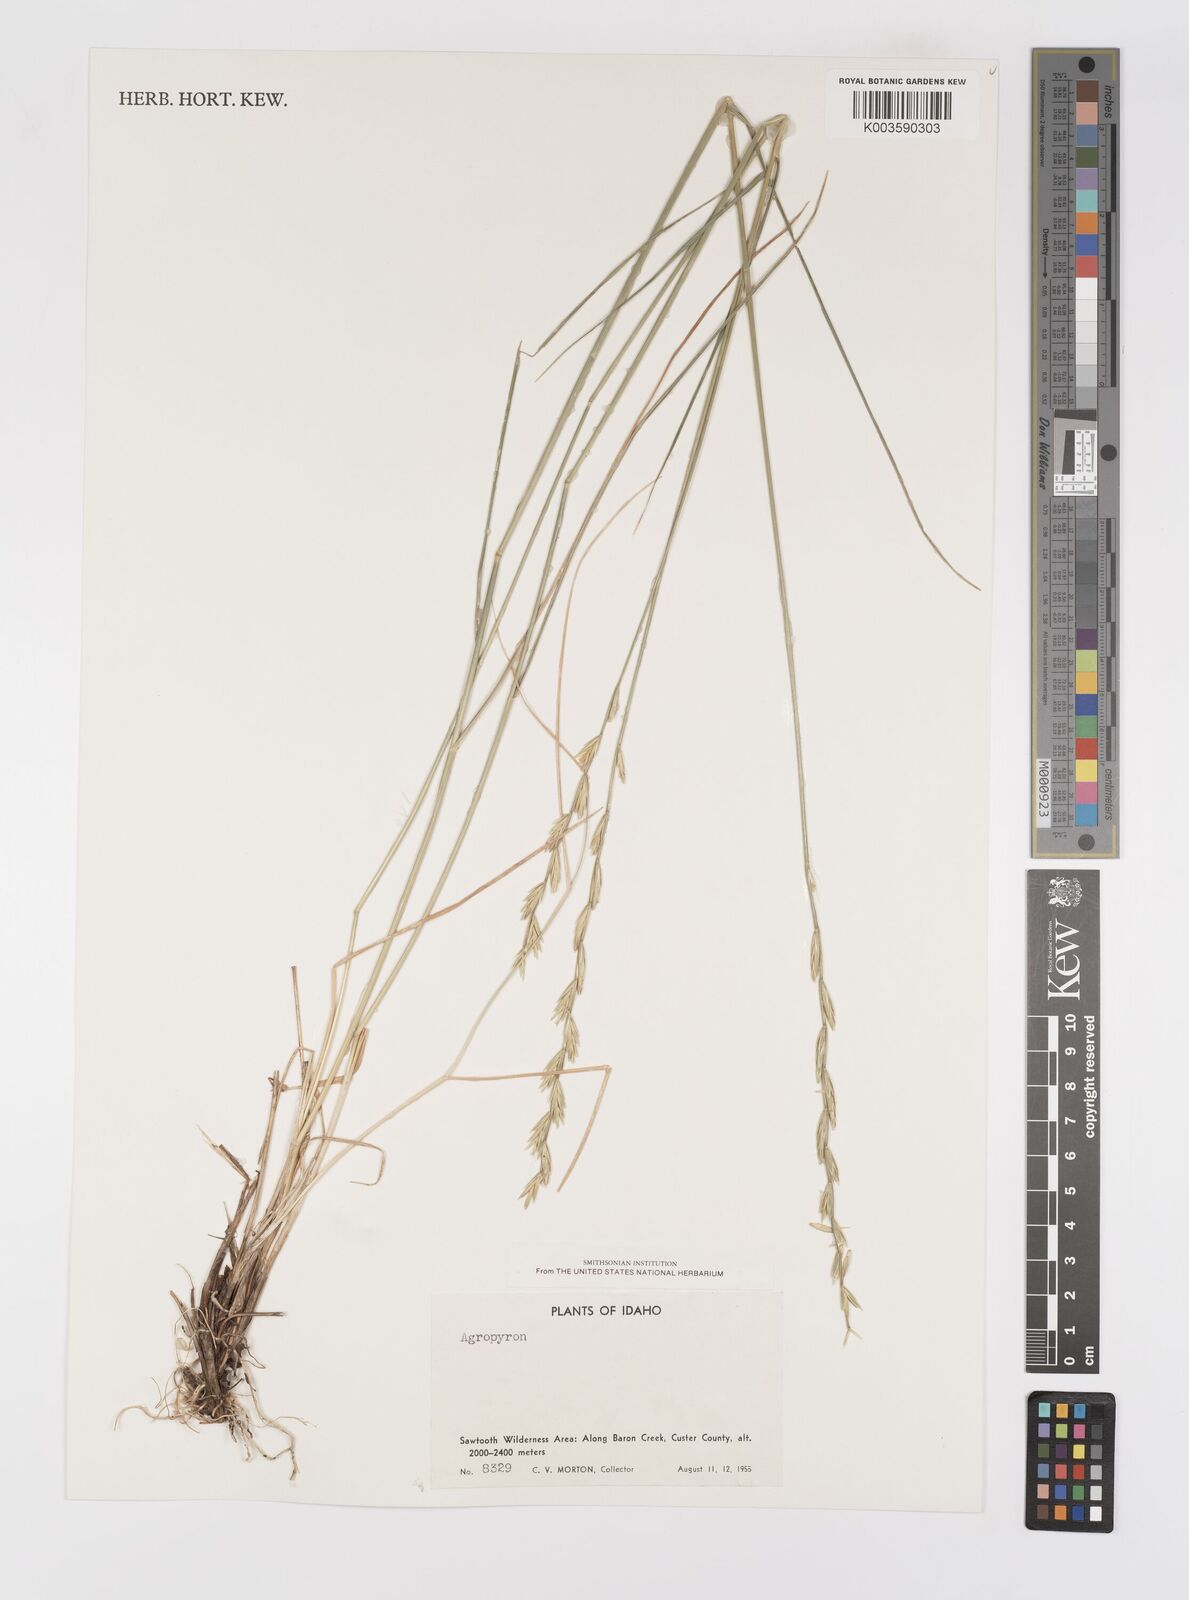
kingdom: Plantae
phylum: Tracheophyta
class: Liliopsida
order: Poales
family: Poaceae
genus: Elymus
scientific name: Elymus
